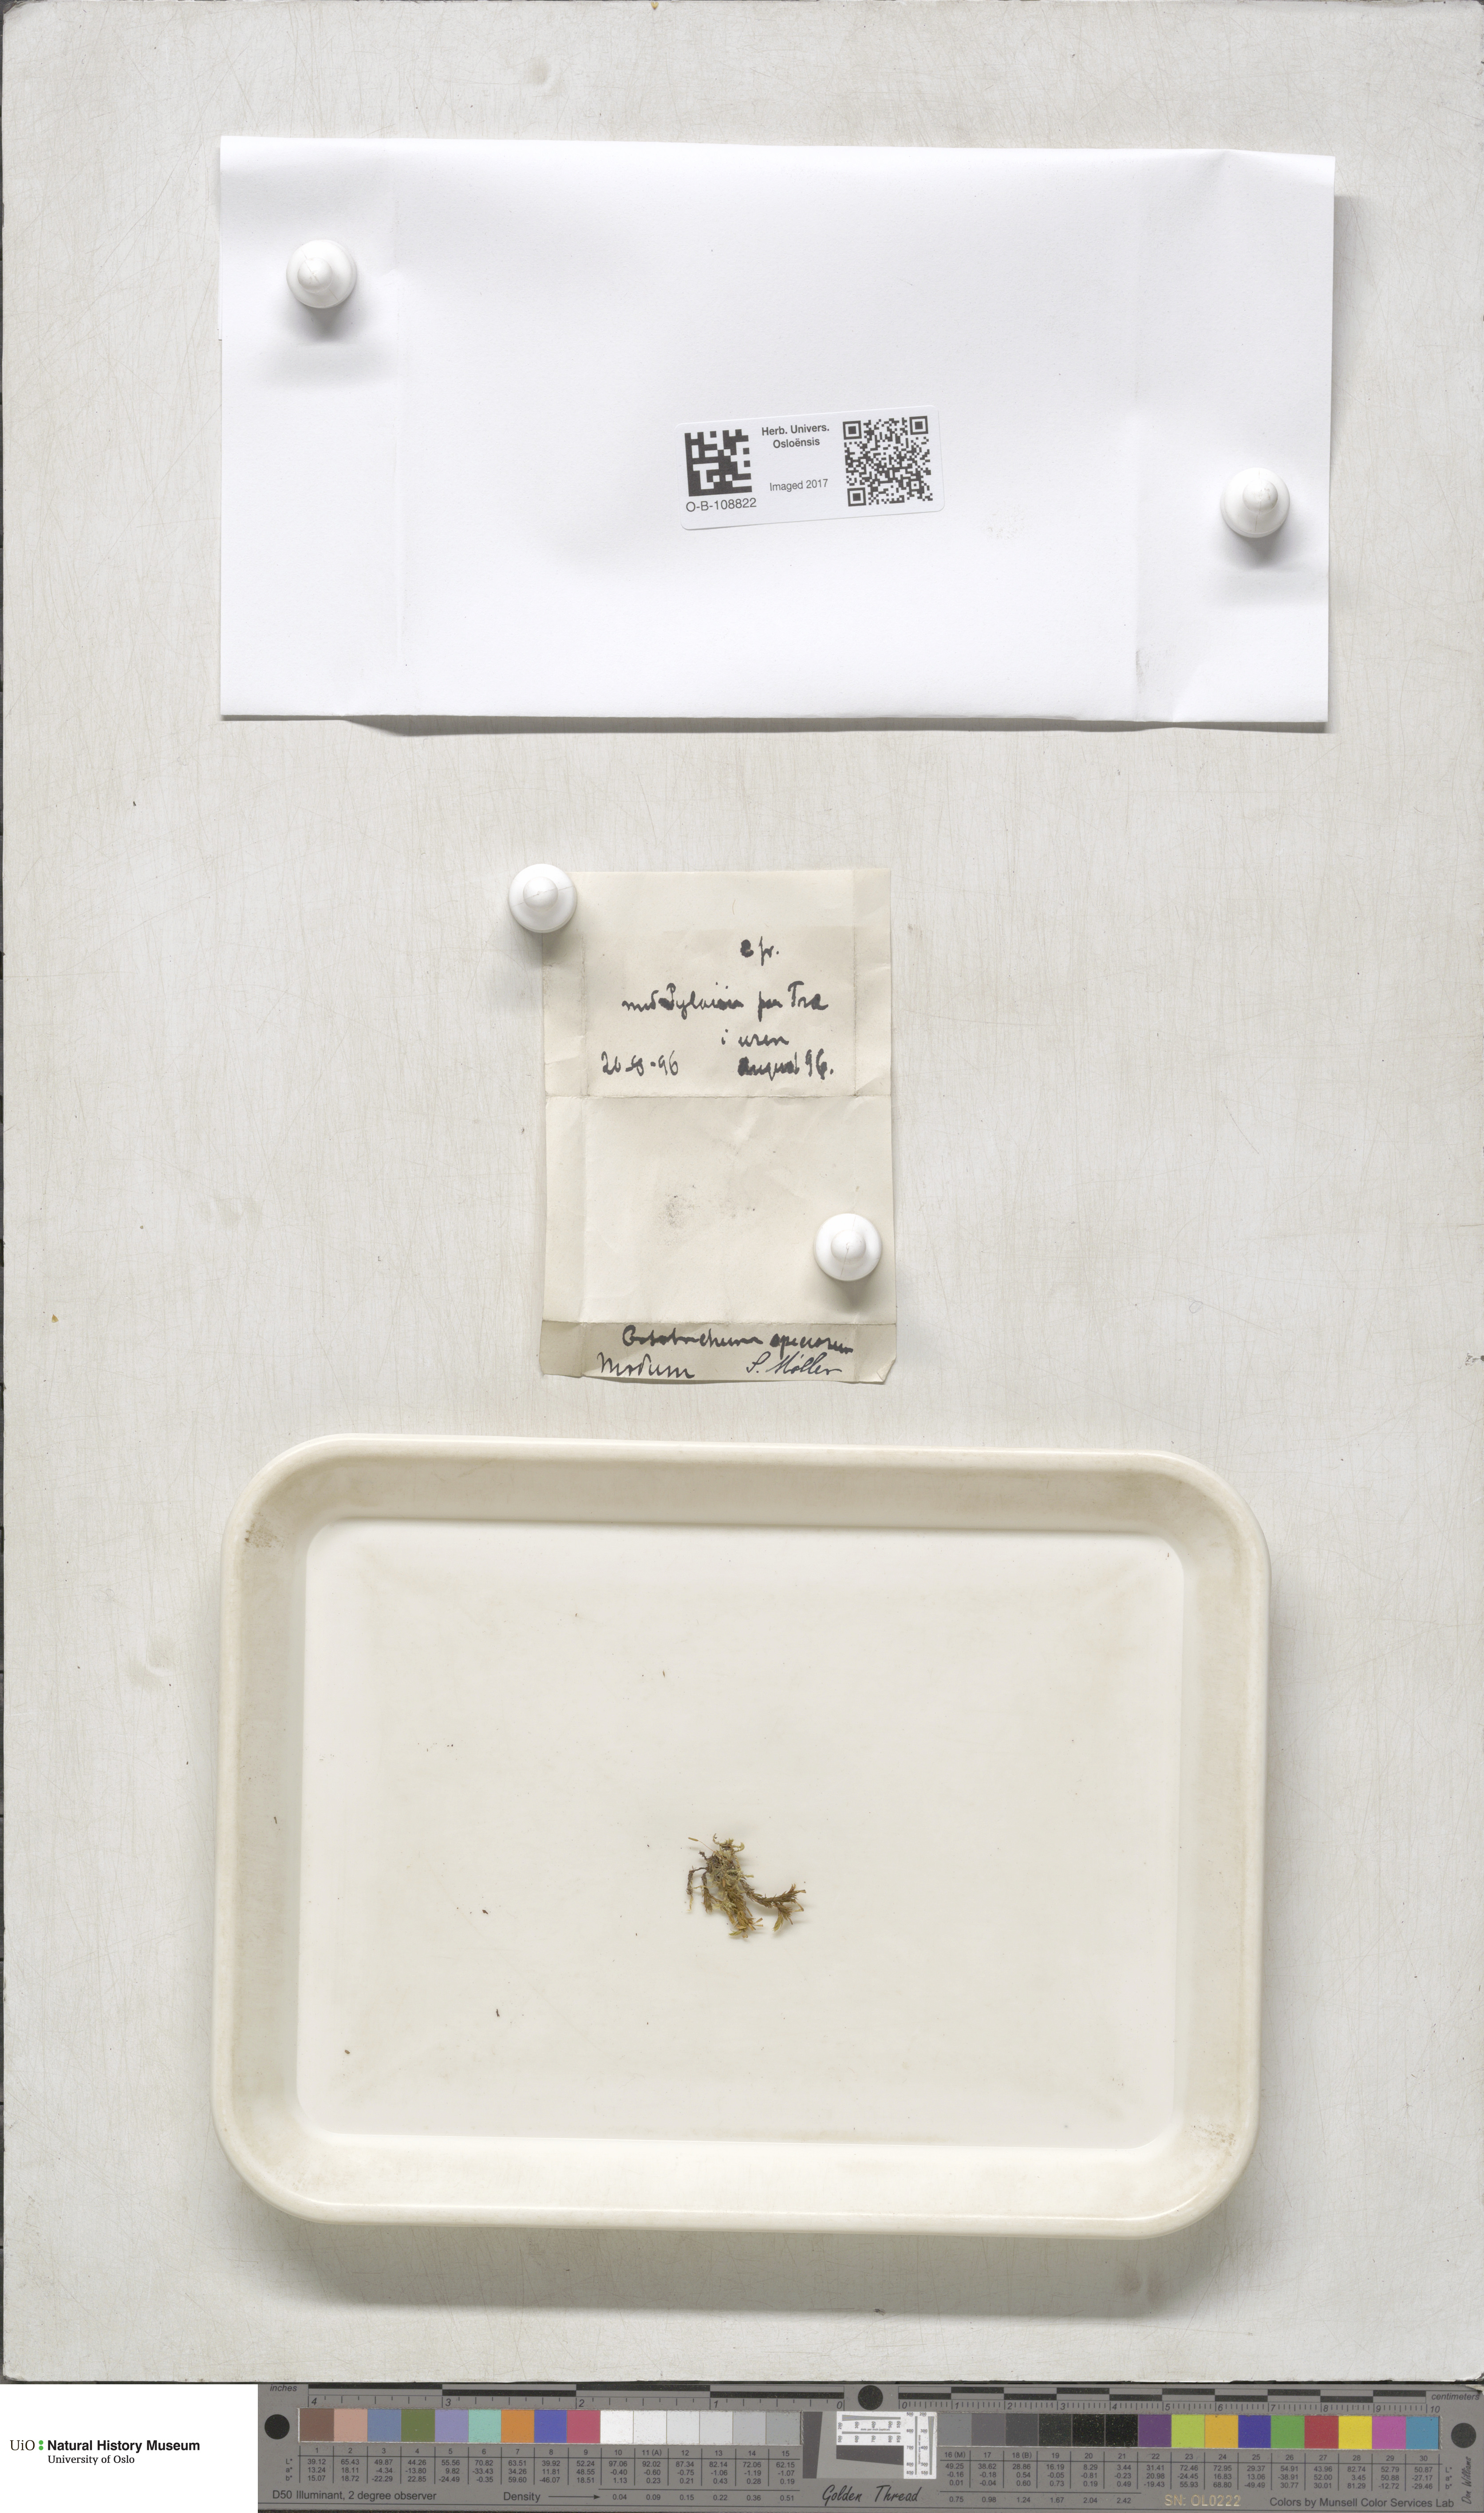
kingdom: Plantae
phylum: Bryophyta
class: Bryopsida
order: Orthotrichales
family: Orthotrichaceae
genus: Lewinskya
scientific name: Lewinskya speciosa
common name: Showy bristle moss
